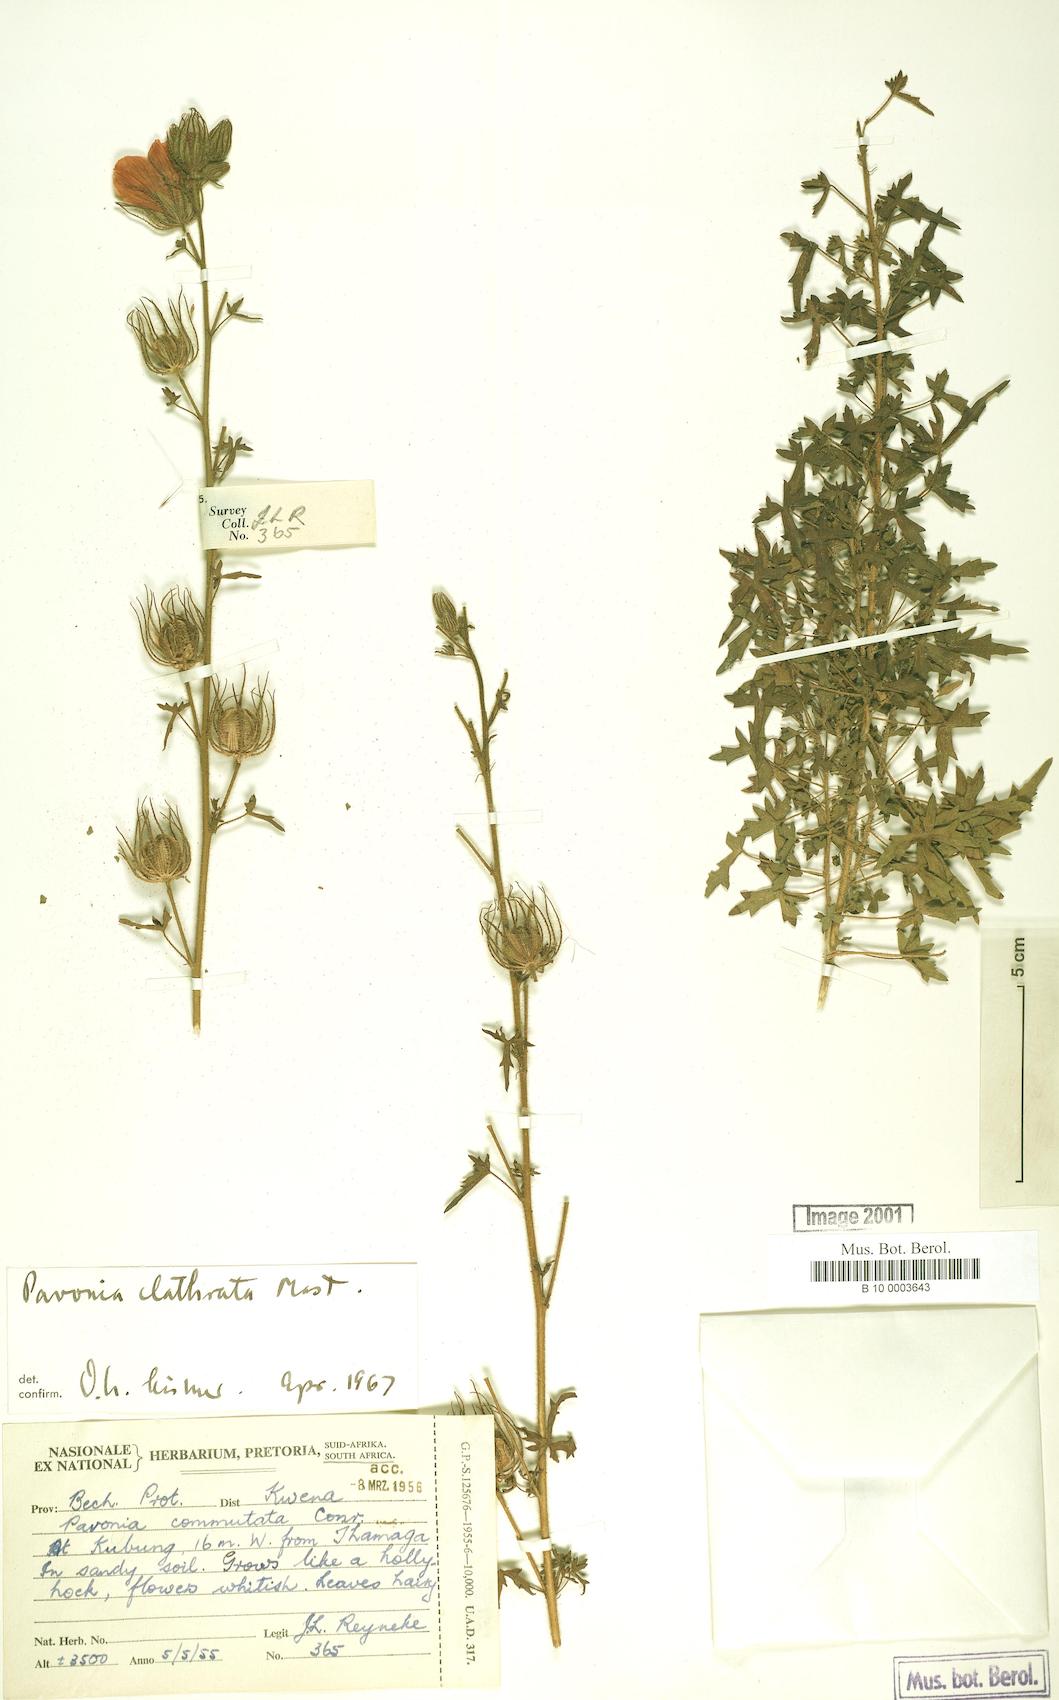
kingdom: Plantae
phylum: Tracheophyta
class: Magnoliopsida
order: Malvales
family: Malvaceae
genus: Pavonia
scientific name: Pavonia clathrata
